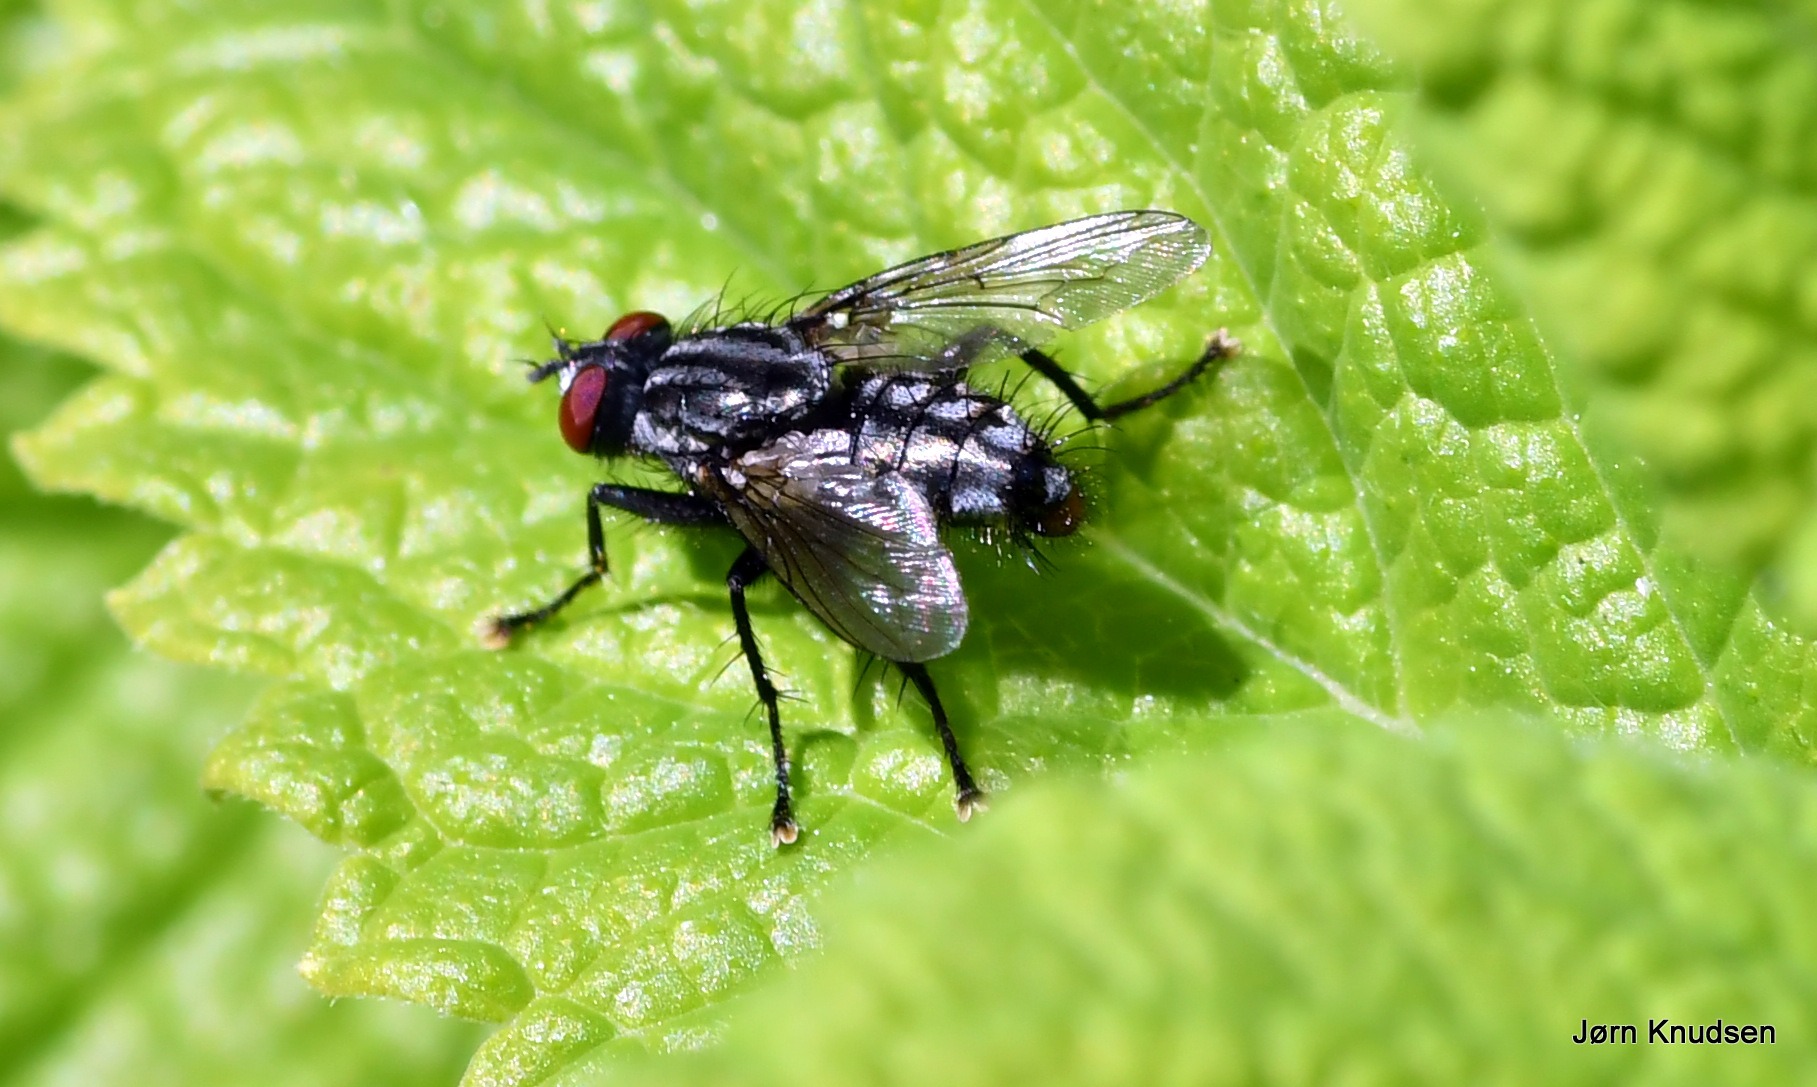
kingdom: Animalia
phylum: Arthropoda
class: Insecta
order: Diptera
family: Sarcophagidae
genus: Sarcophaga
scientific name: Sarcophaga
